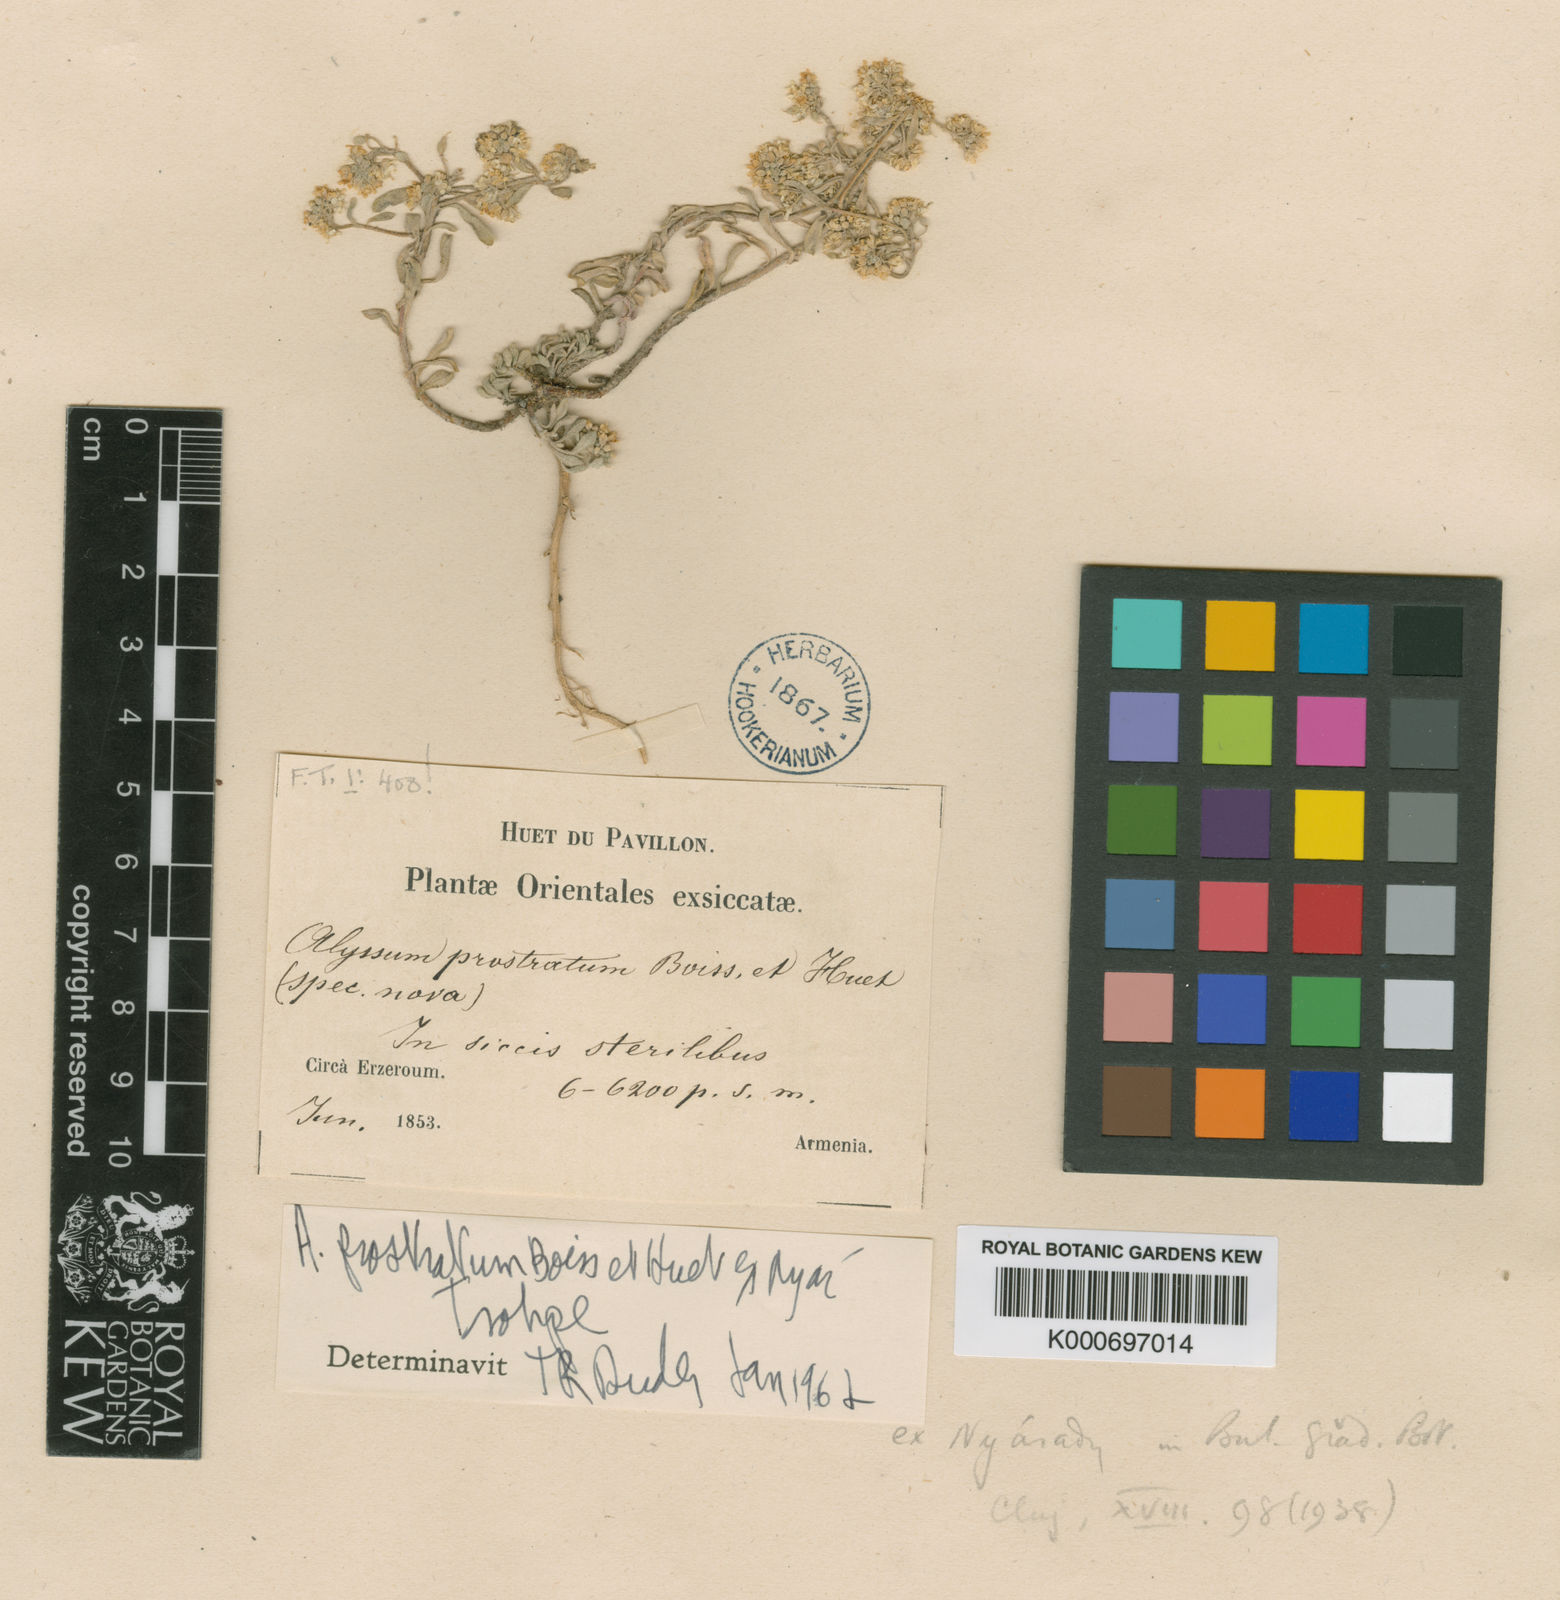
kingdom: Plantae
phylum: Tracheophyta
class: Magnoliopsida
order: Brassicales
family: Brassicaceae
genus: Odontarrhena
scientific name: Odontarrhena pateri
